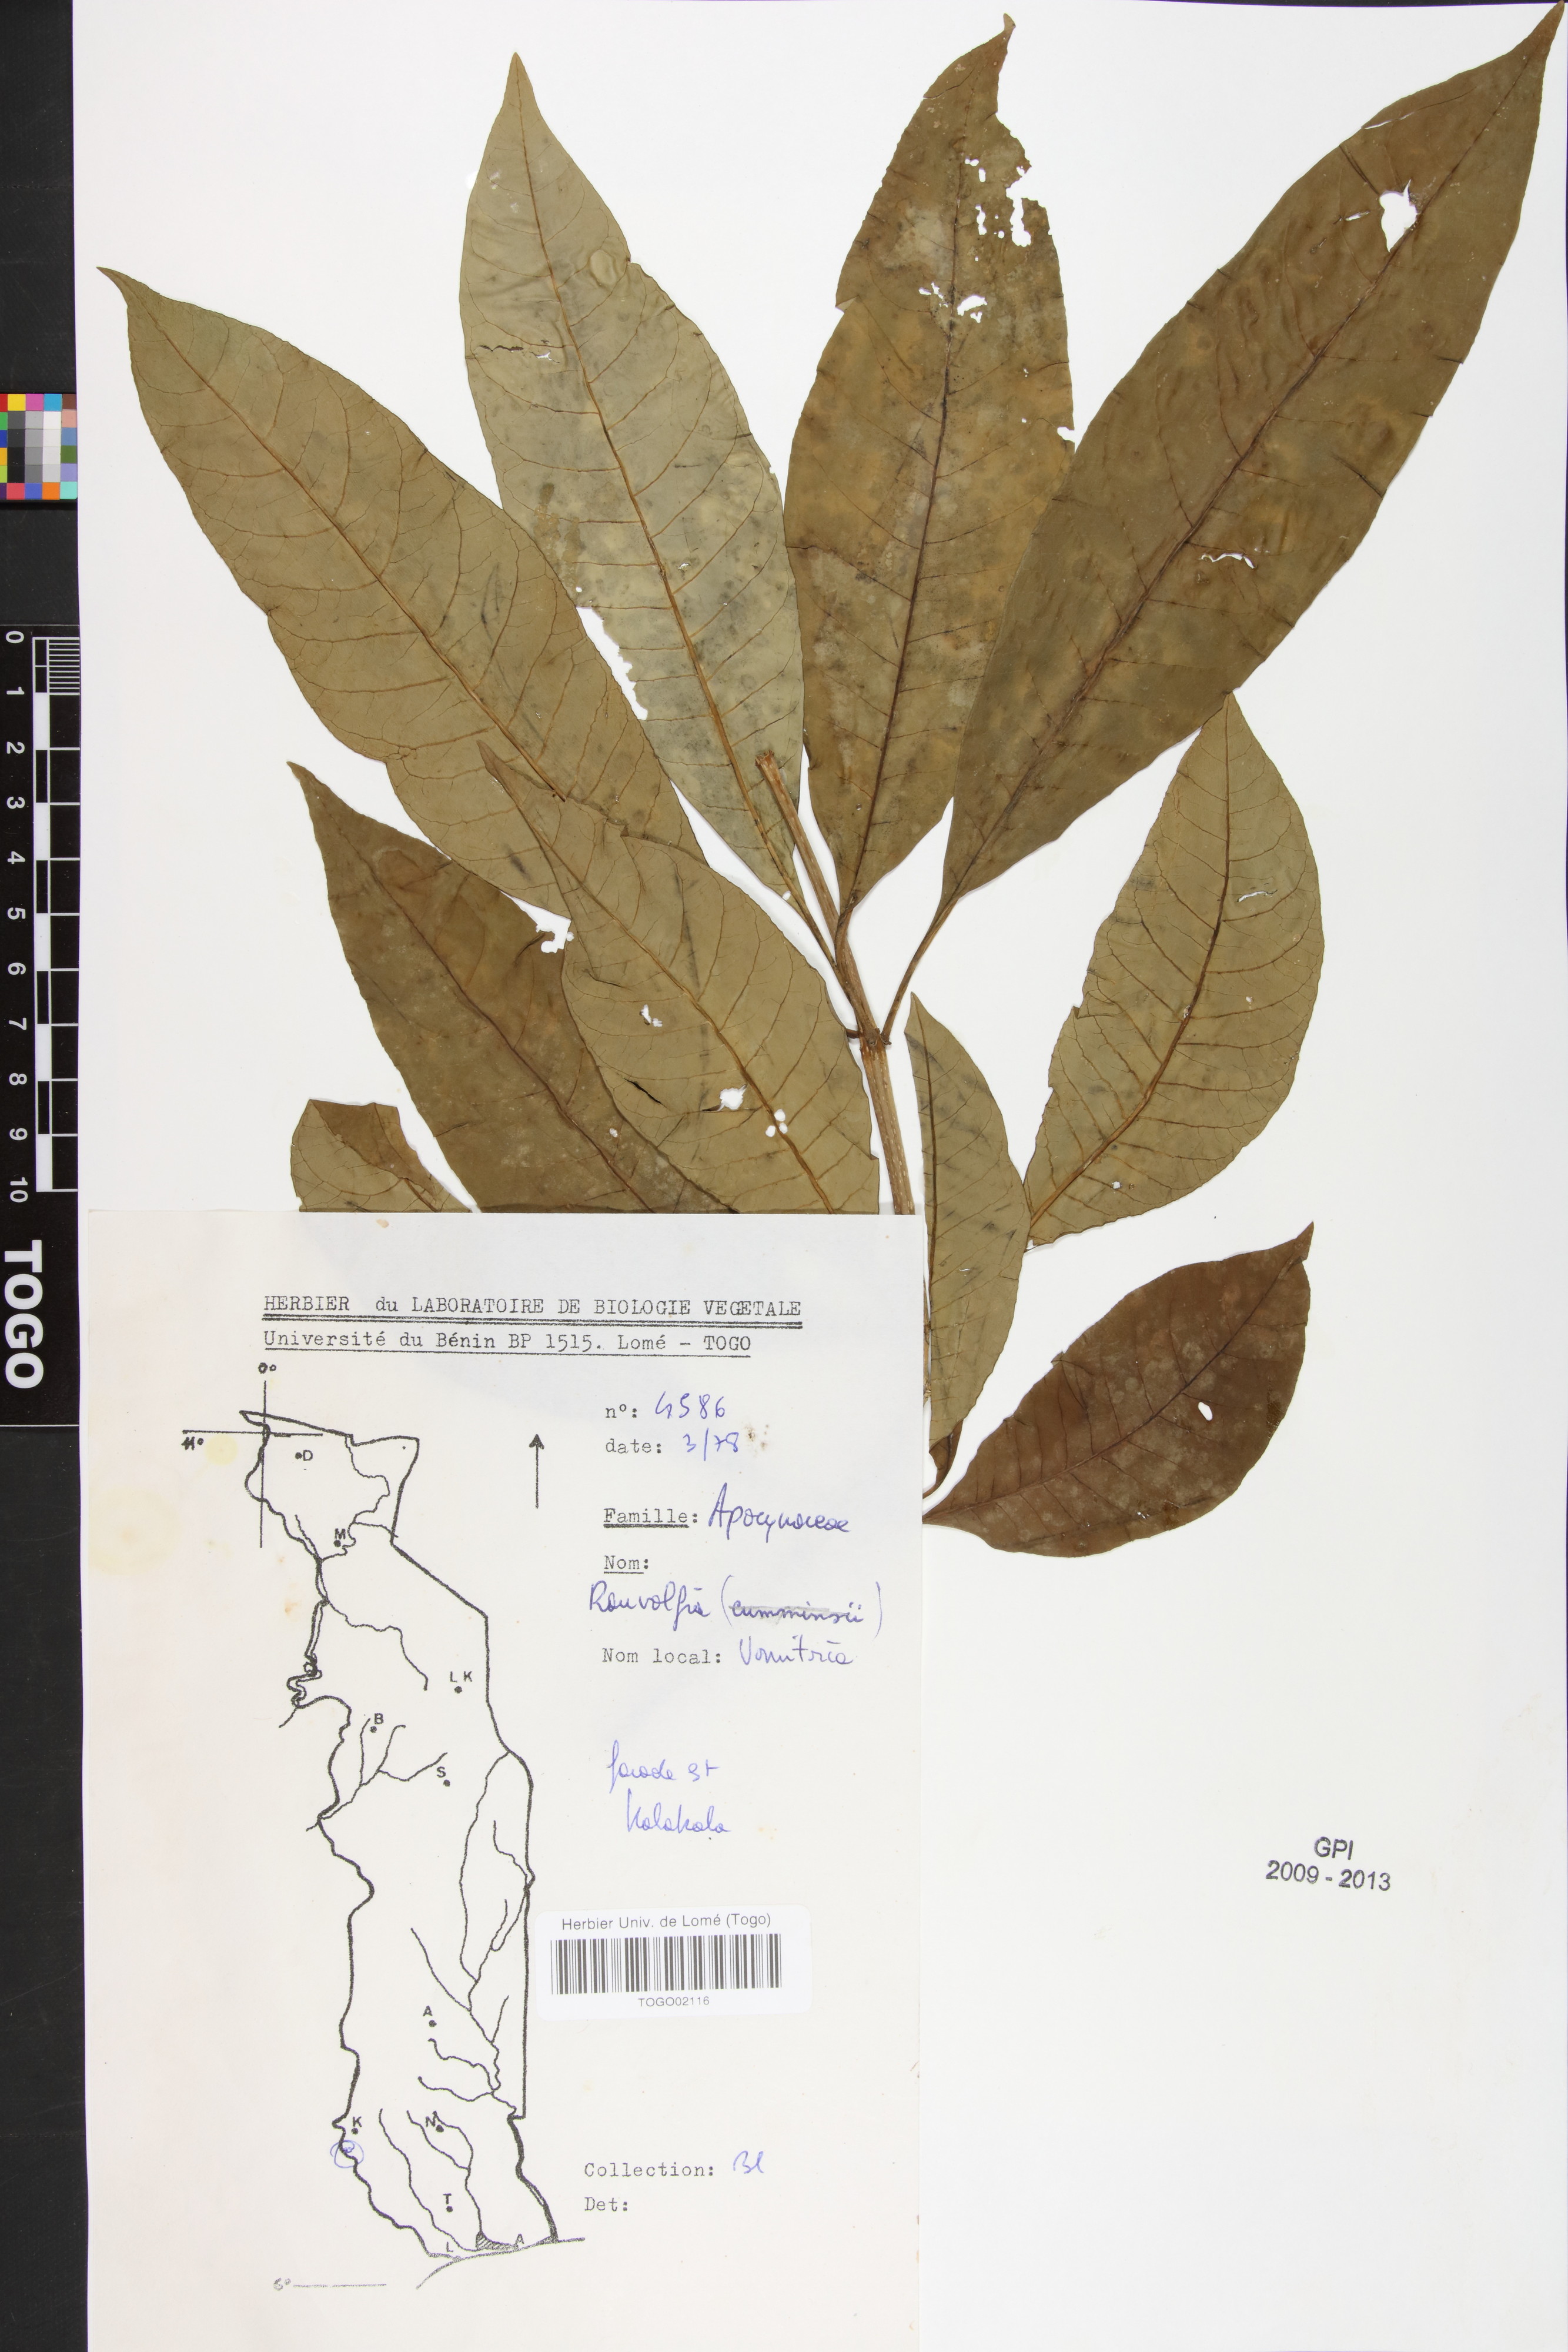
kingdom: Plantae
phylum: Tracheophyta
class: Magnoliopsida
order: Gentianales
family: Apocynaceae
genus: Rauvolfia
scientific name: Rauvolfia vomitoria
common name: Poison devil's-pepper
